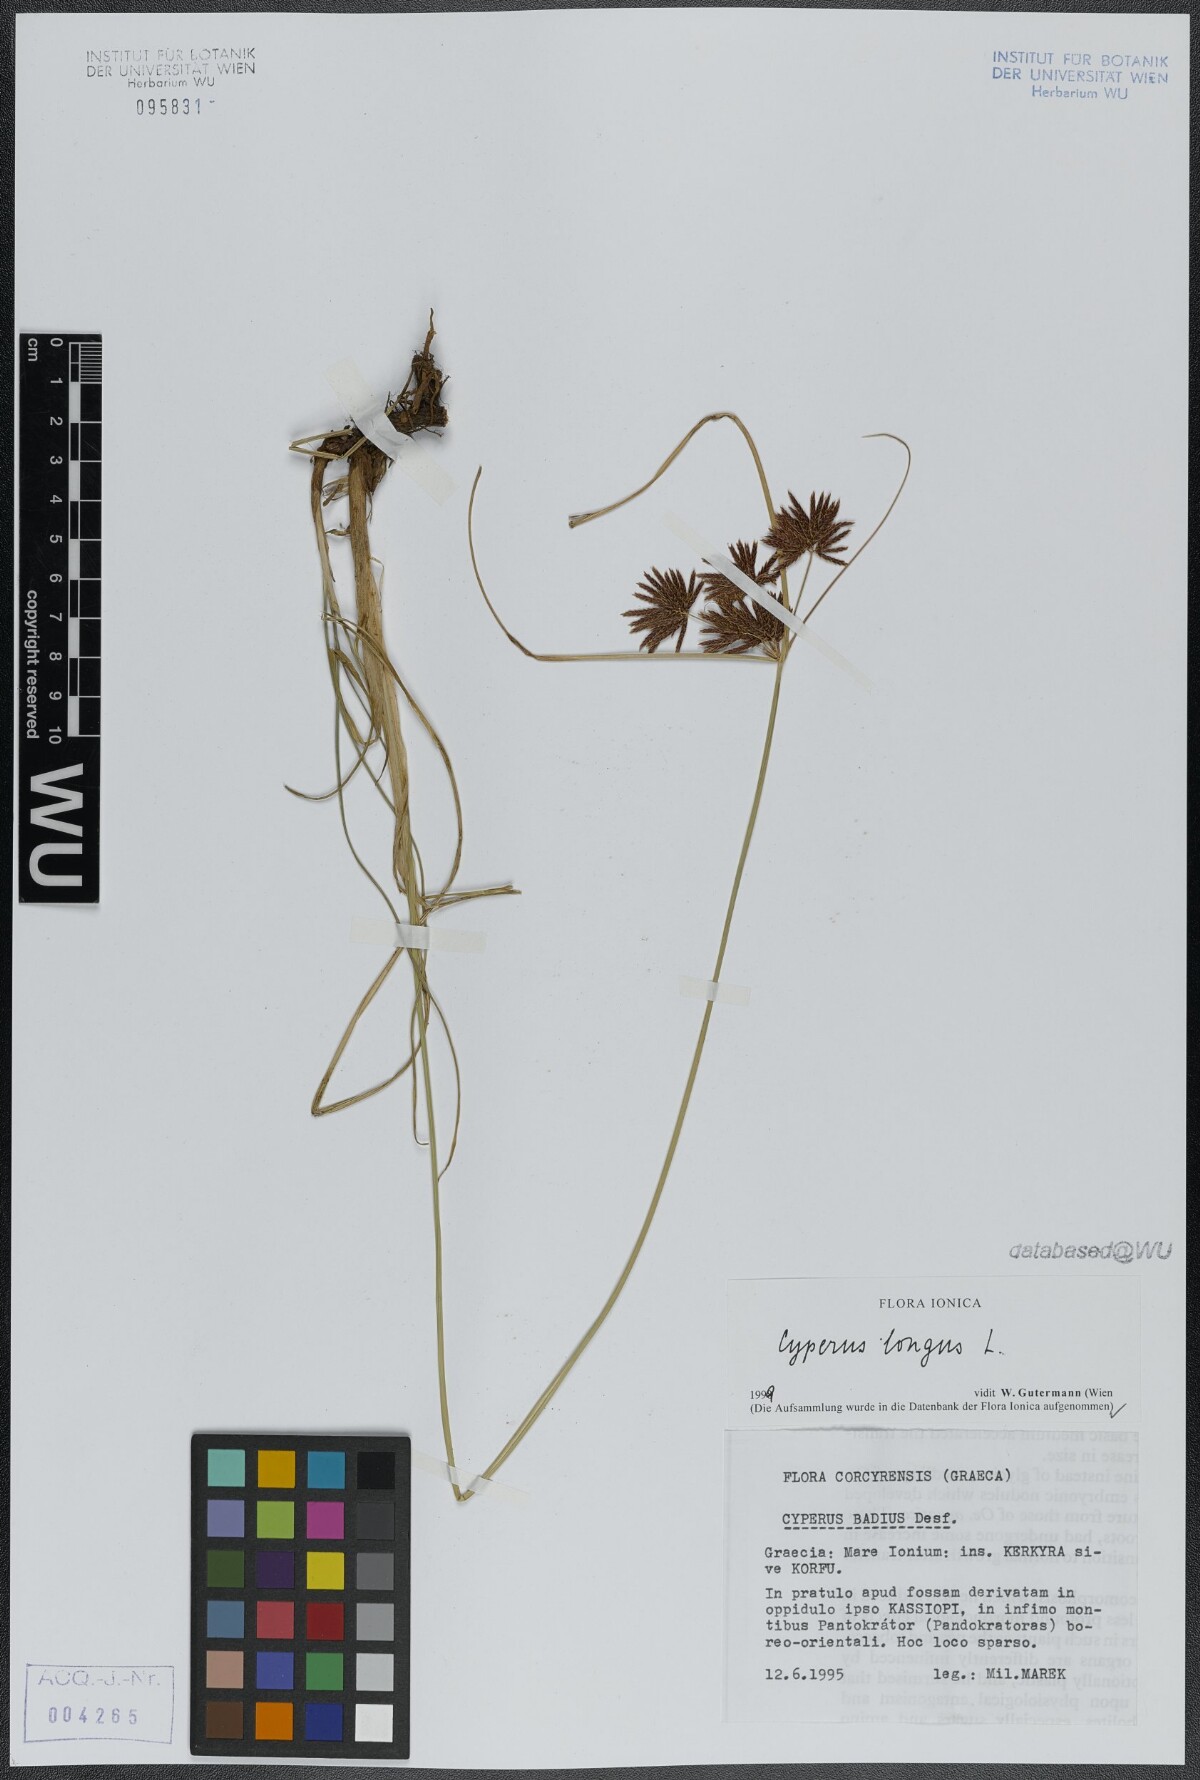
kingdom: Plantae
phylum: Tracheophyta
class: Liliopsida
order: Poales
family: Cyperaceae
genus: Cyperus
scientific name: Cyperus longus
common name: Galingale
